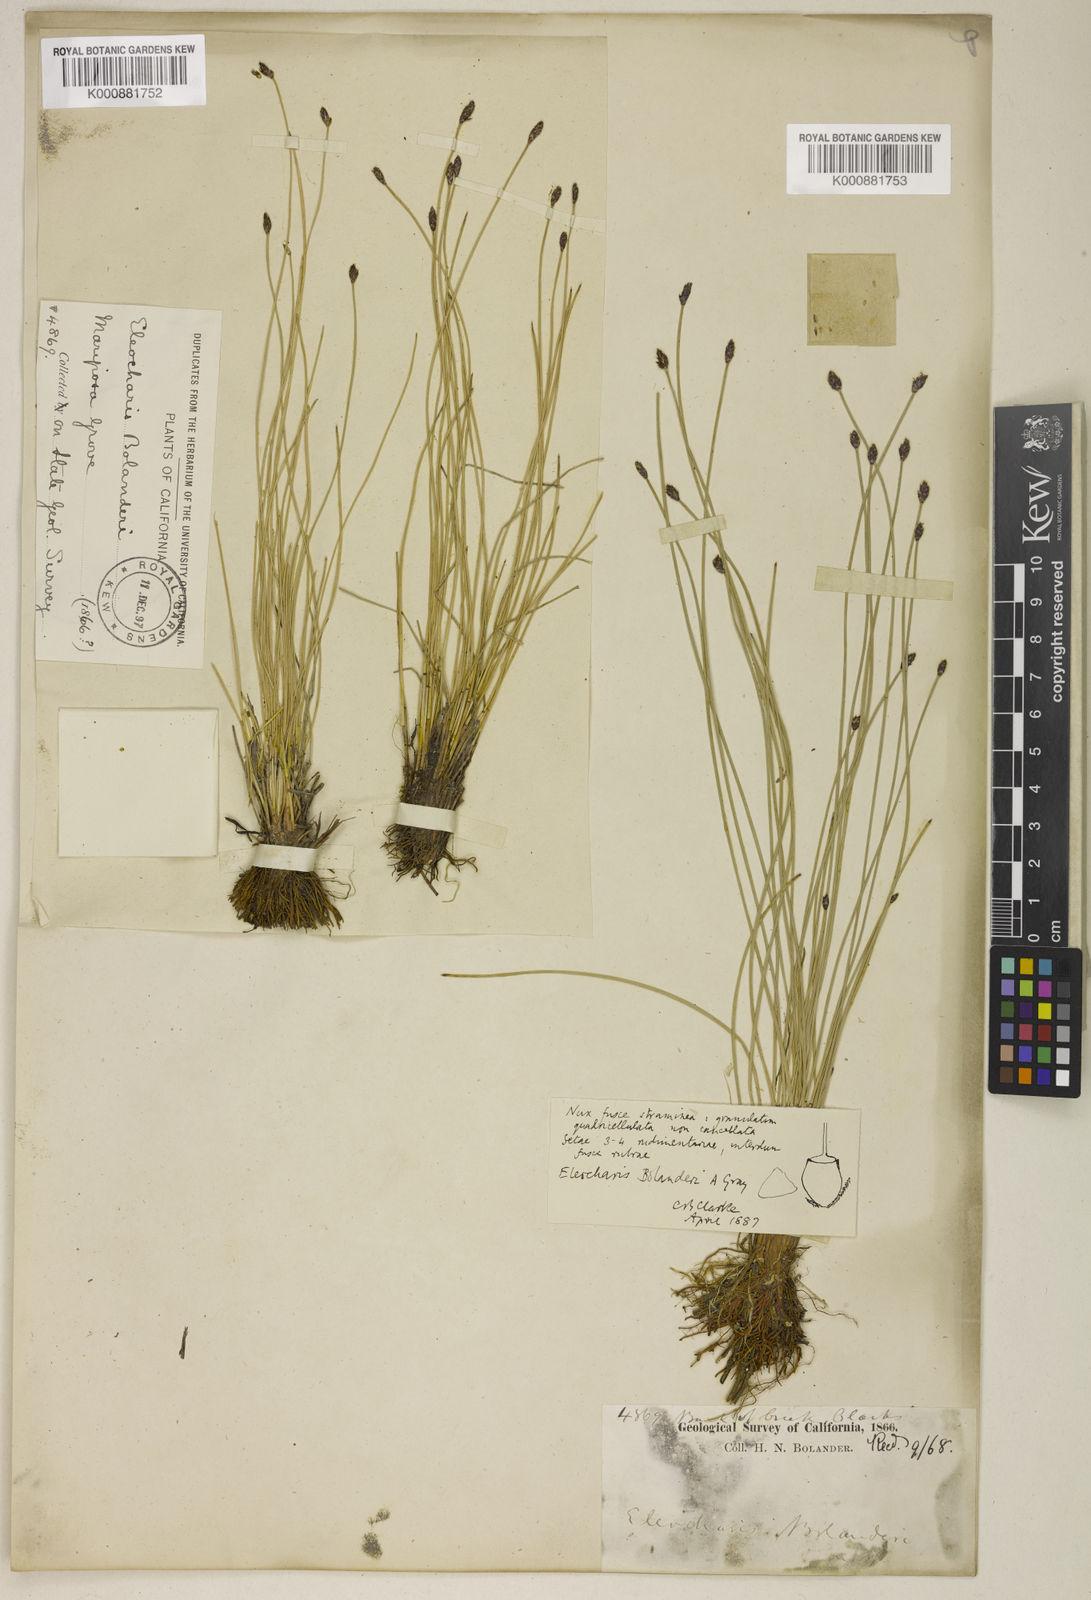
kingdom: Plantae
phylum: Tracheophyta
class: Liliopsida
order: Poales
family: Cyperaceae
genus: Eleocharis
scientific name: Eleocharis bolanderi
